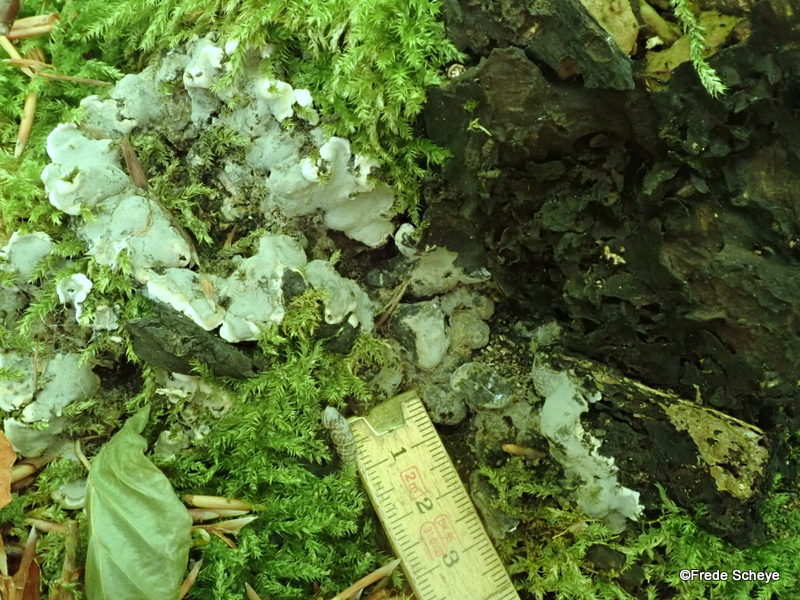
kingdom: Fungi
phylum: Ascomycota
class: Sordariomycetes
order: Xylariales
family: Xylariaceae
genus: Kretzschmaria
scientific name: Kretzschmaria deusta
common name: stor kulsvamp
